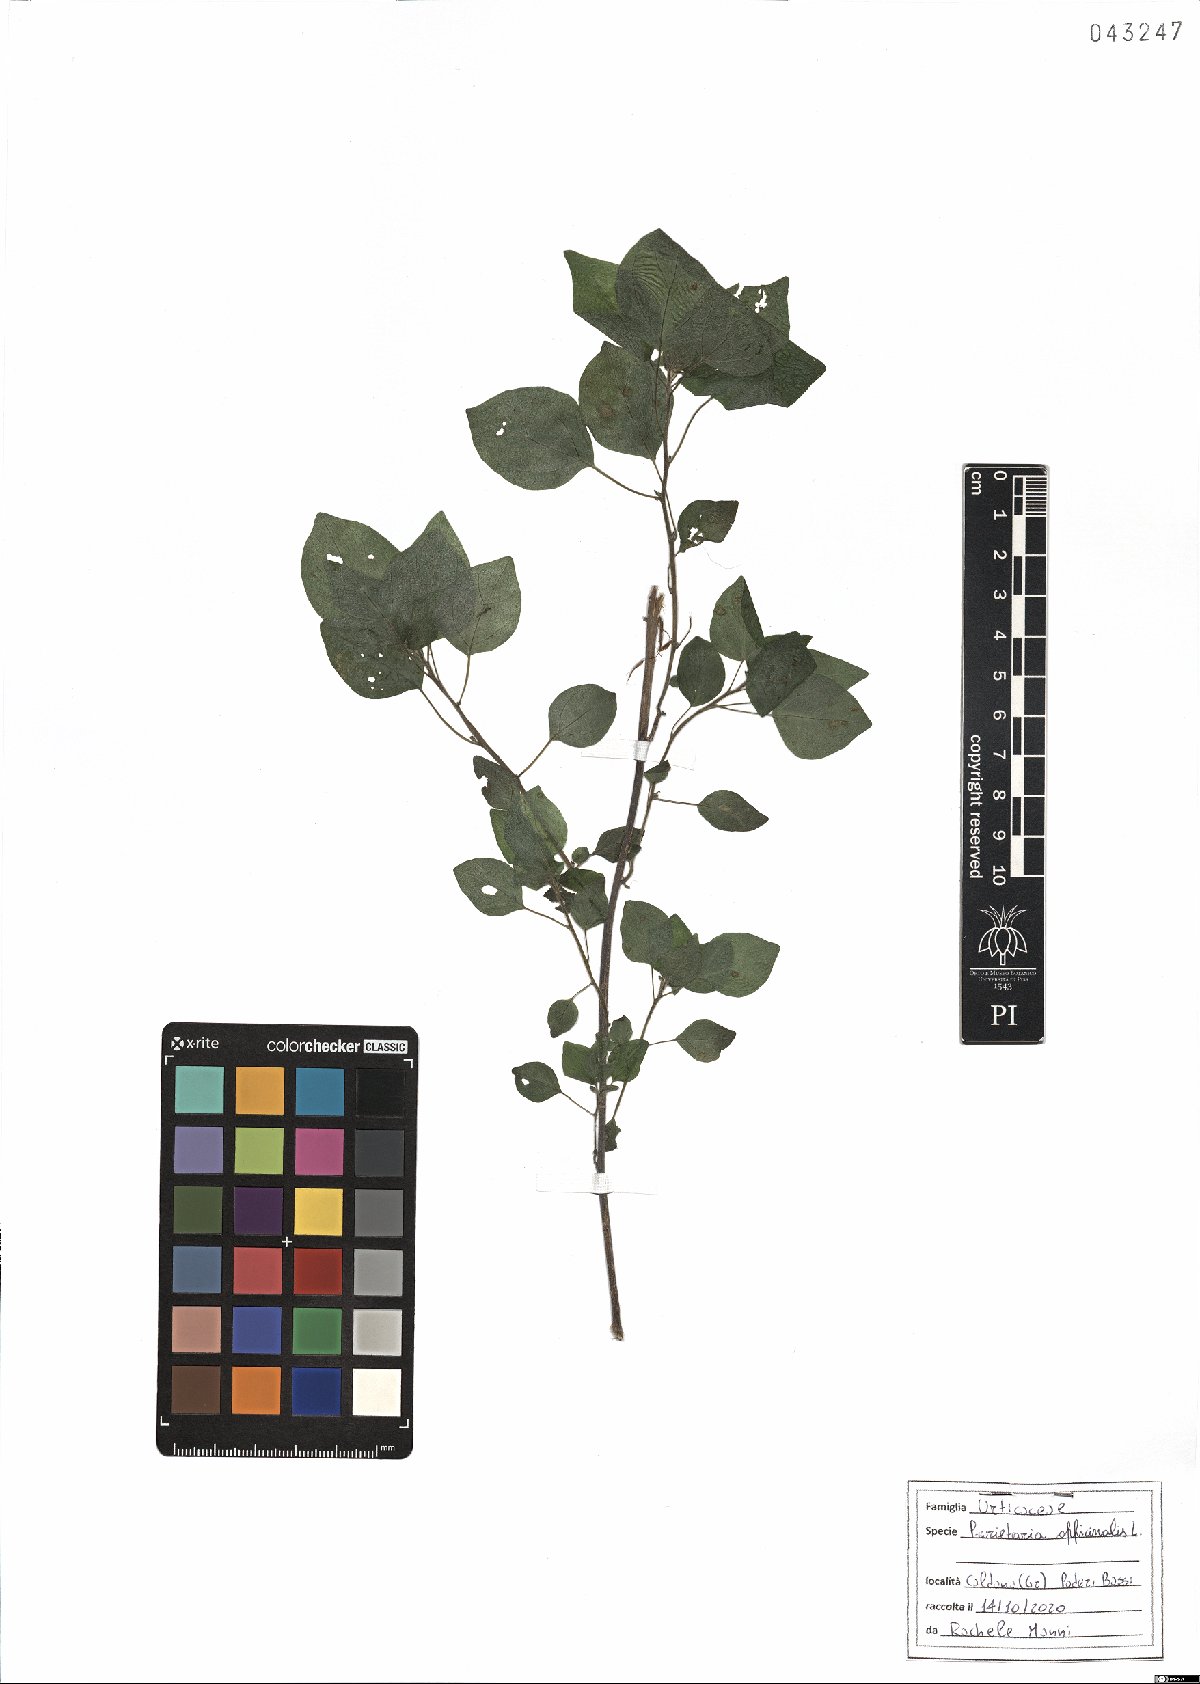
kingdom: Plantae
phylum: Tracheophyta
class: Magnoliopsida
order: Rosales
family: Urticaceae
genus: Parietaria
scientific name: Parietaria officinalis
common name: Eastern pellitory-of-the-wall
